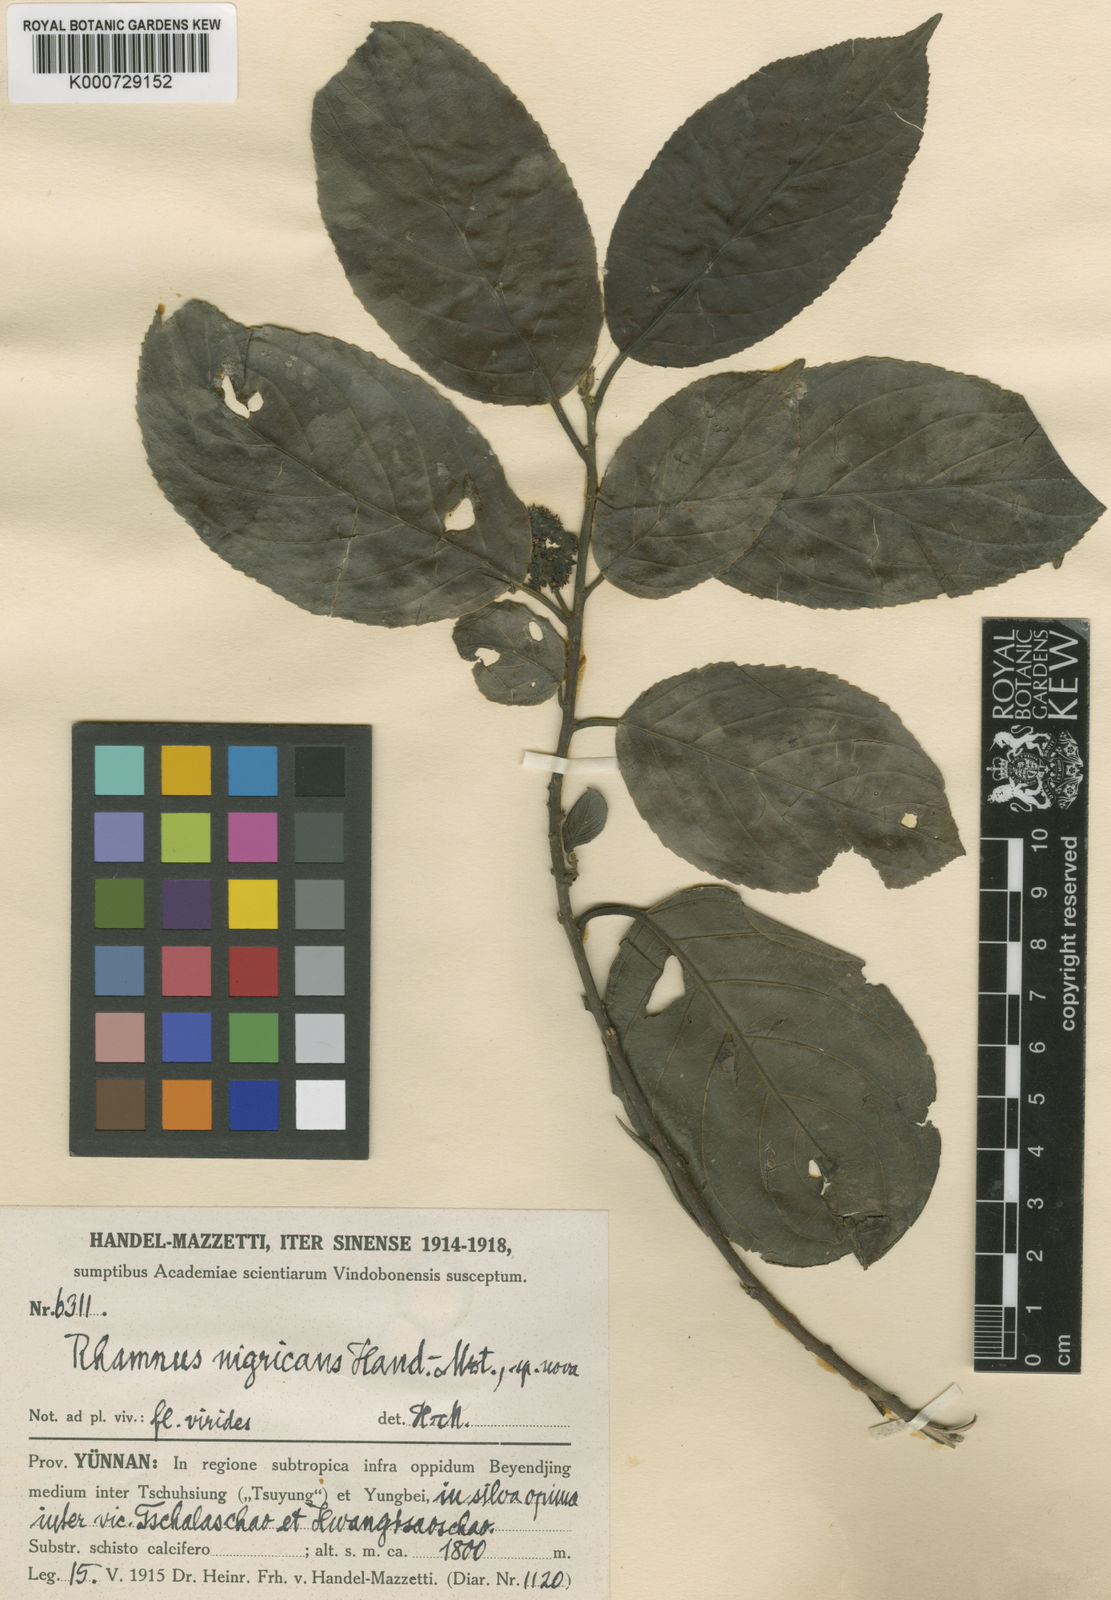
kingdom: Plantae
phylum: Tracheophyta
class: Magnoliopsida
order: Rosales
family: Rhamnaceae
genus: Rhamnus
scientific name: Rhamnus nigricans
